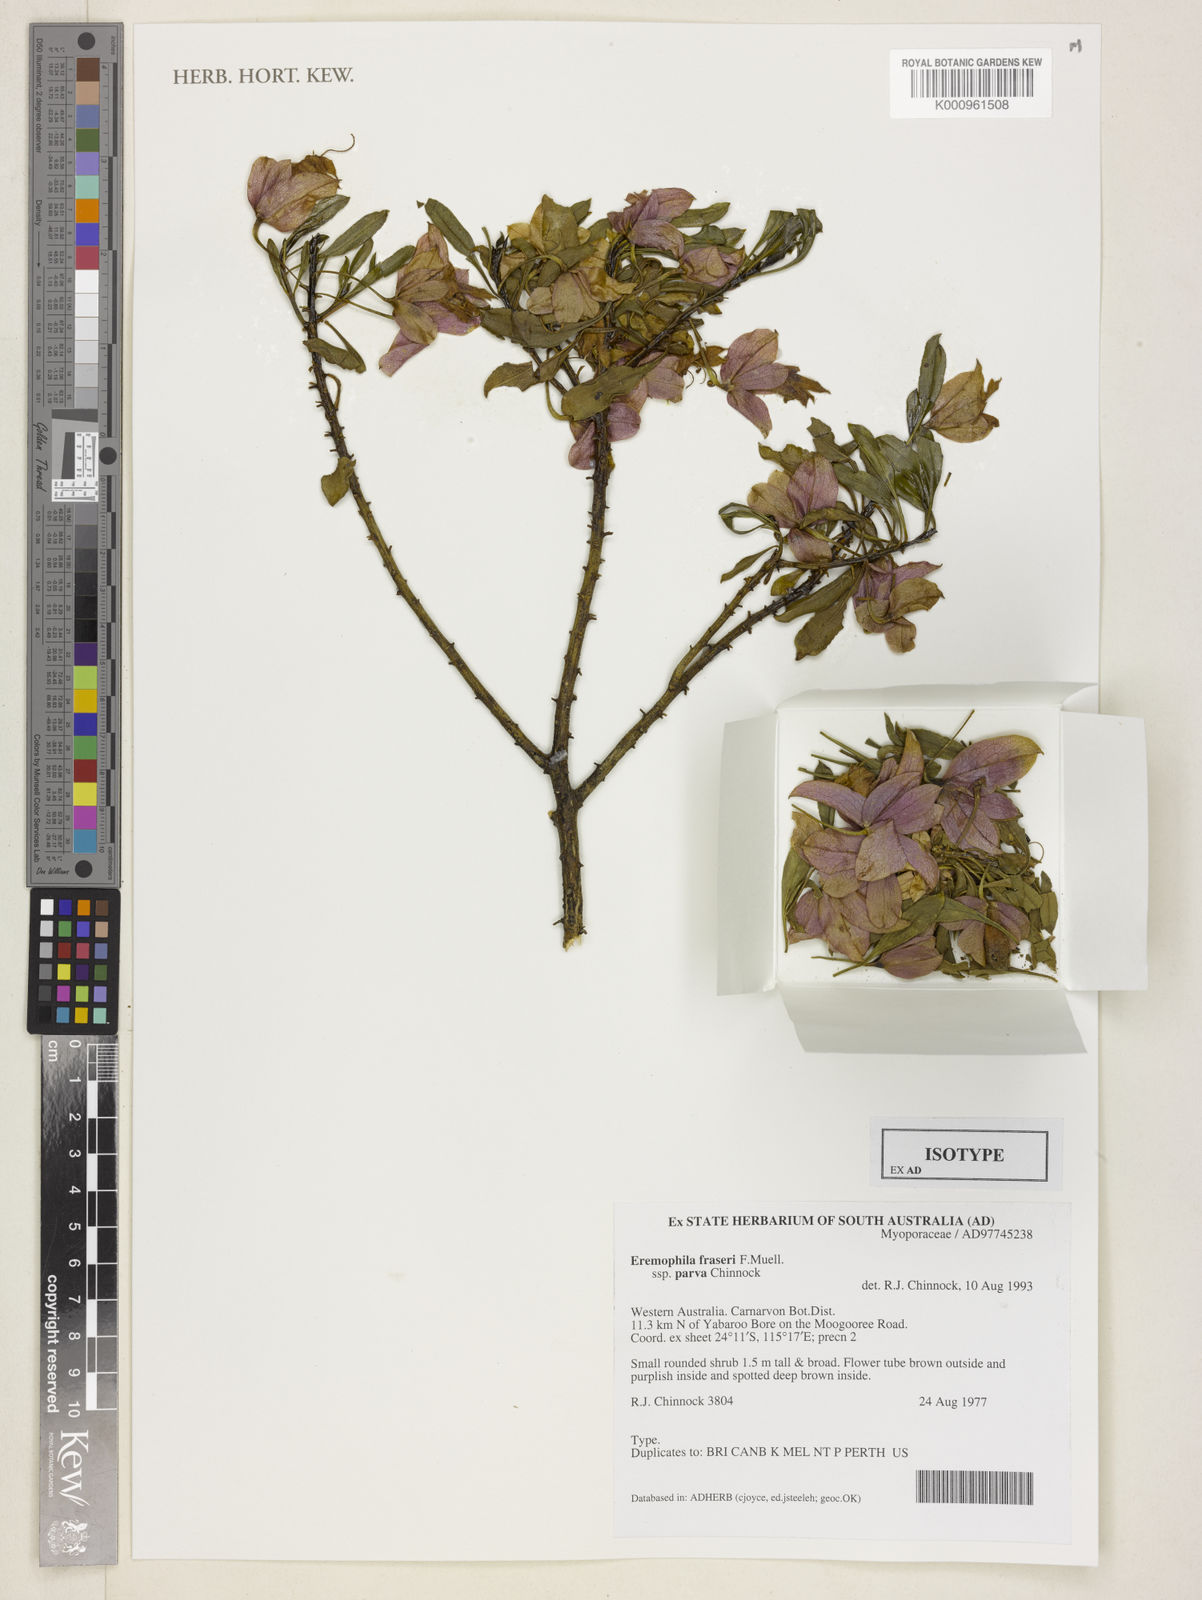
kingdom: Plantae
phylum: Tracheophyta
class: Magnoliopsida
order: Lamiales
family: Scrophulariaceae
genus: Eremophila
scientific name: Eremophila fraseri
